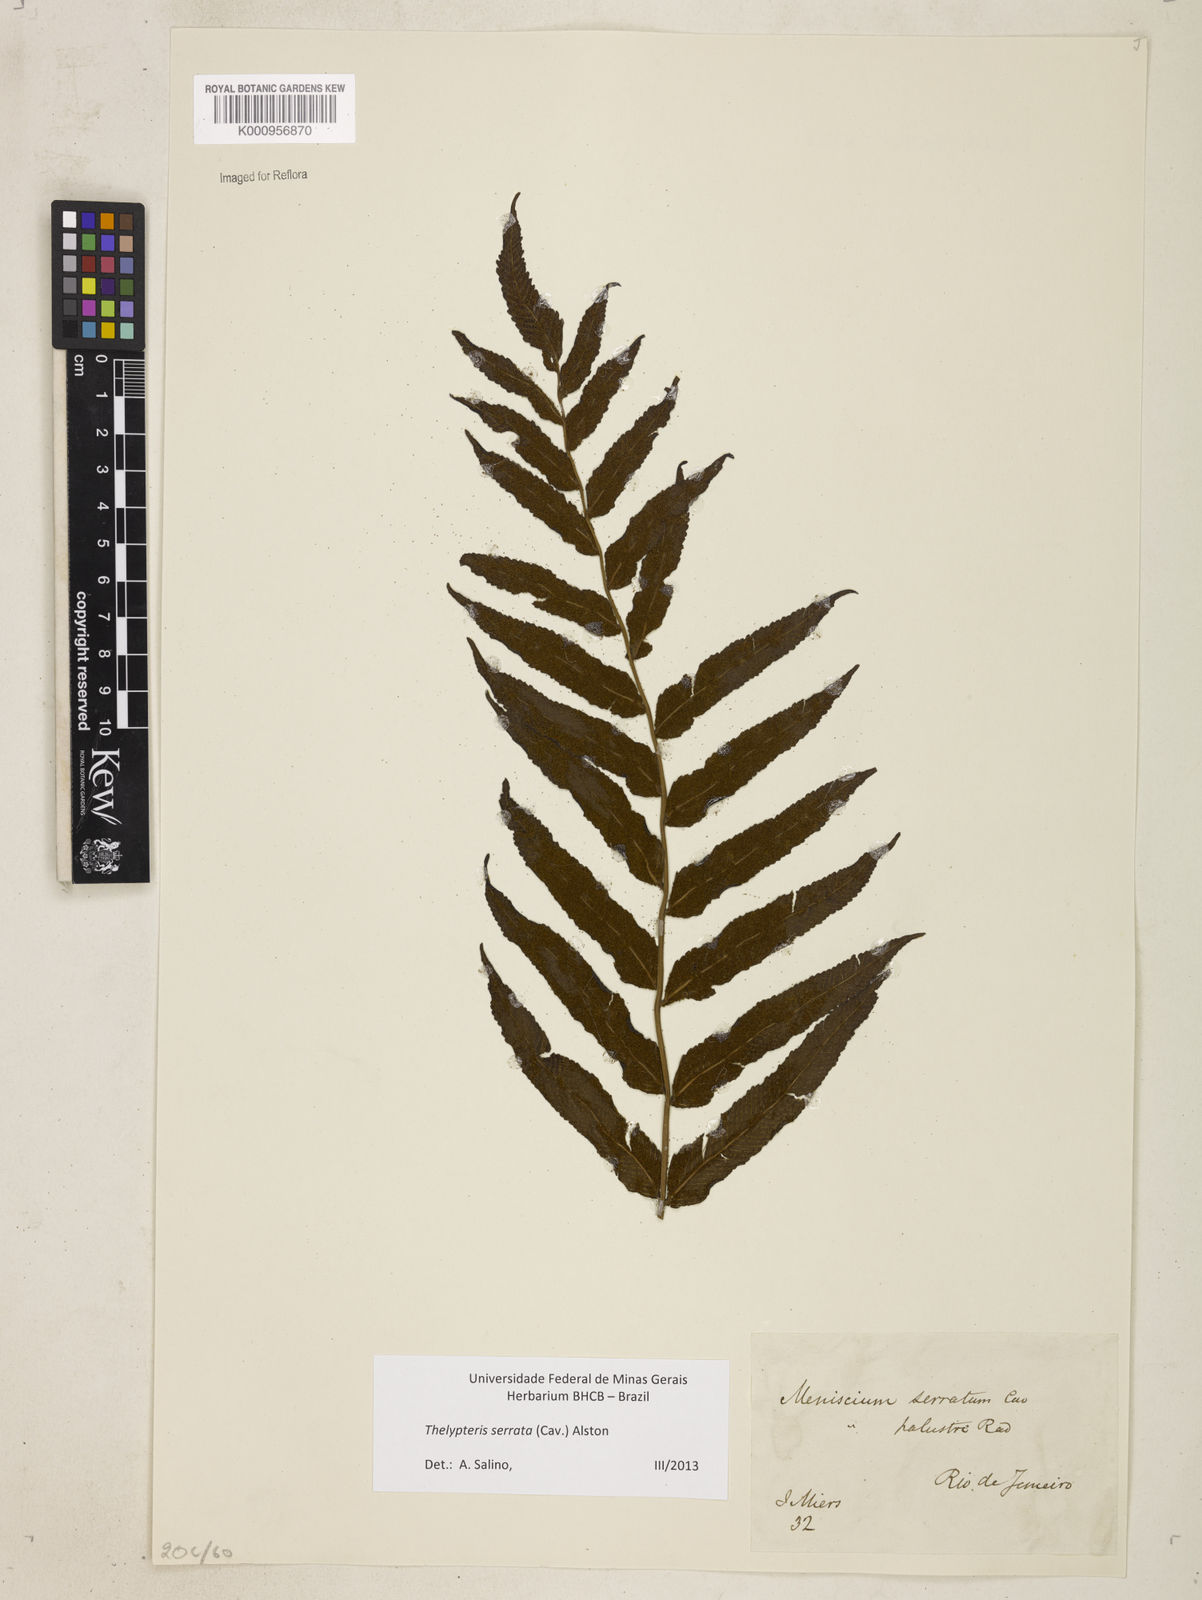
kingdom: Plantae
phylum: Tracheophyta
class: Polypodiopsida
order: Polypodiales
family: Thelypteridaceae
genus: Meniscium
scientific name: Meniscium serratum
